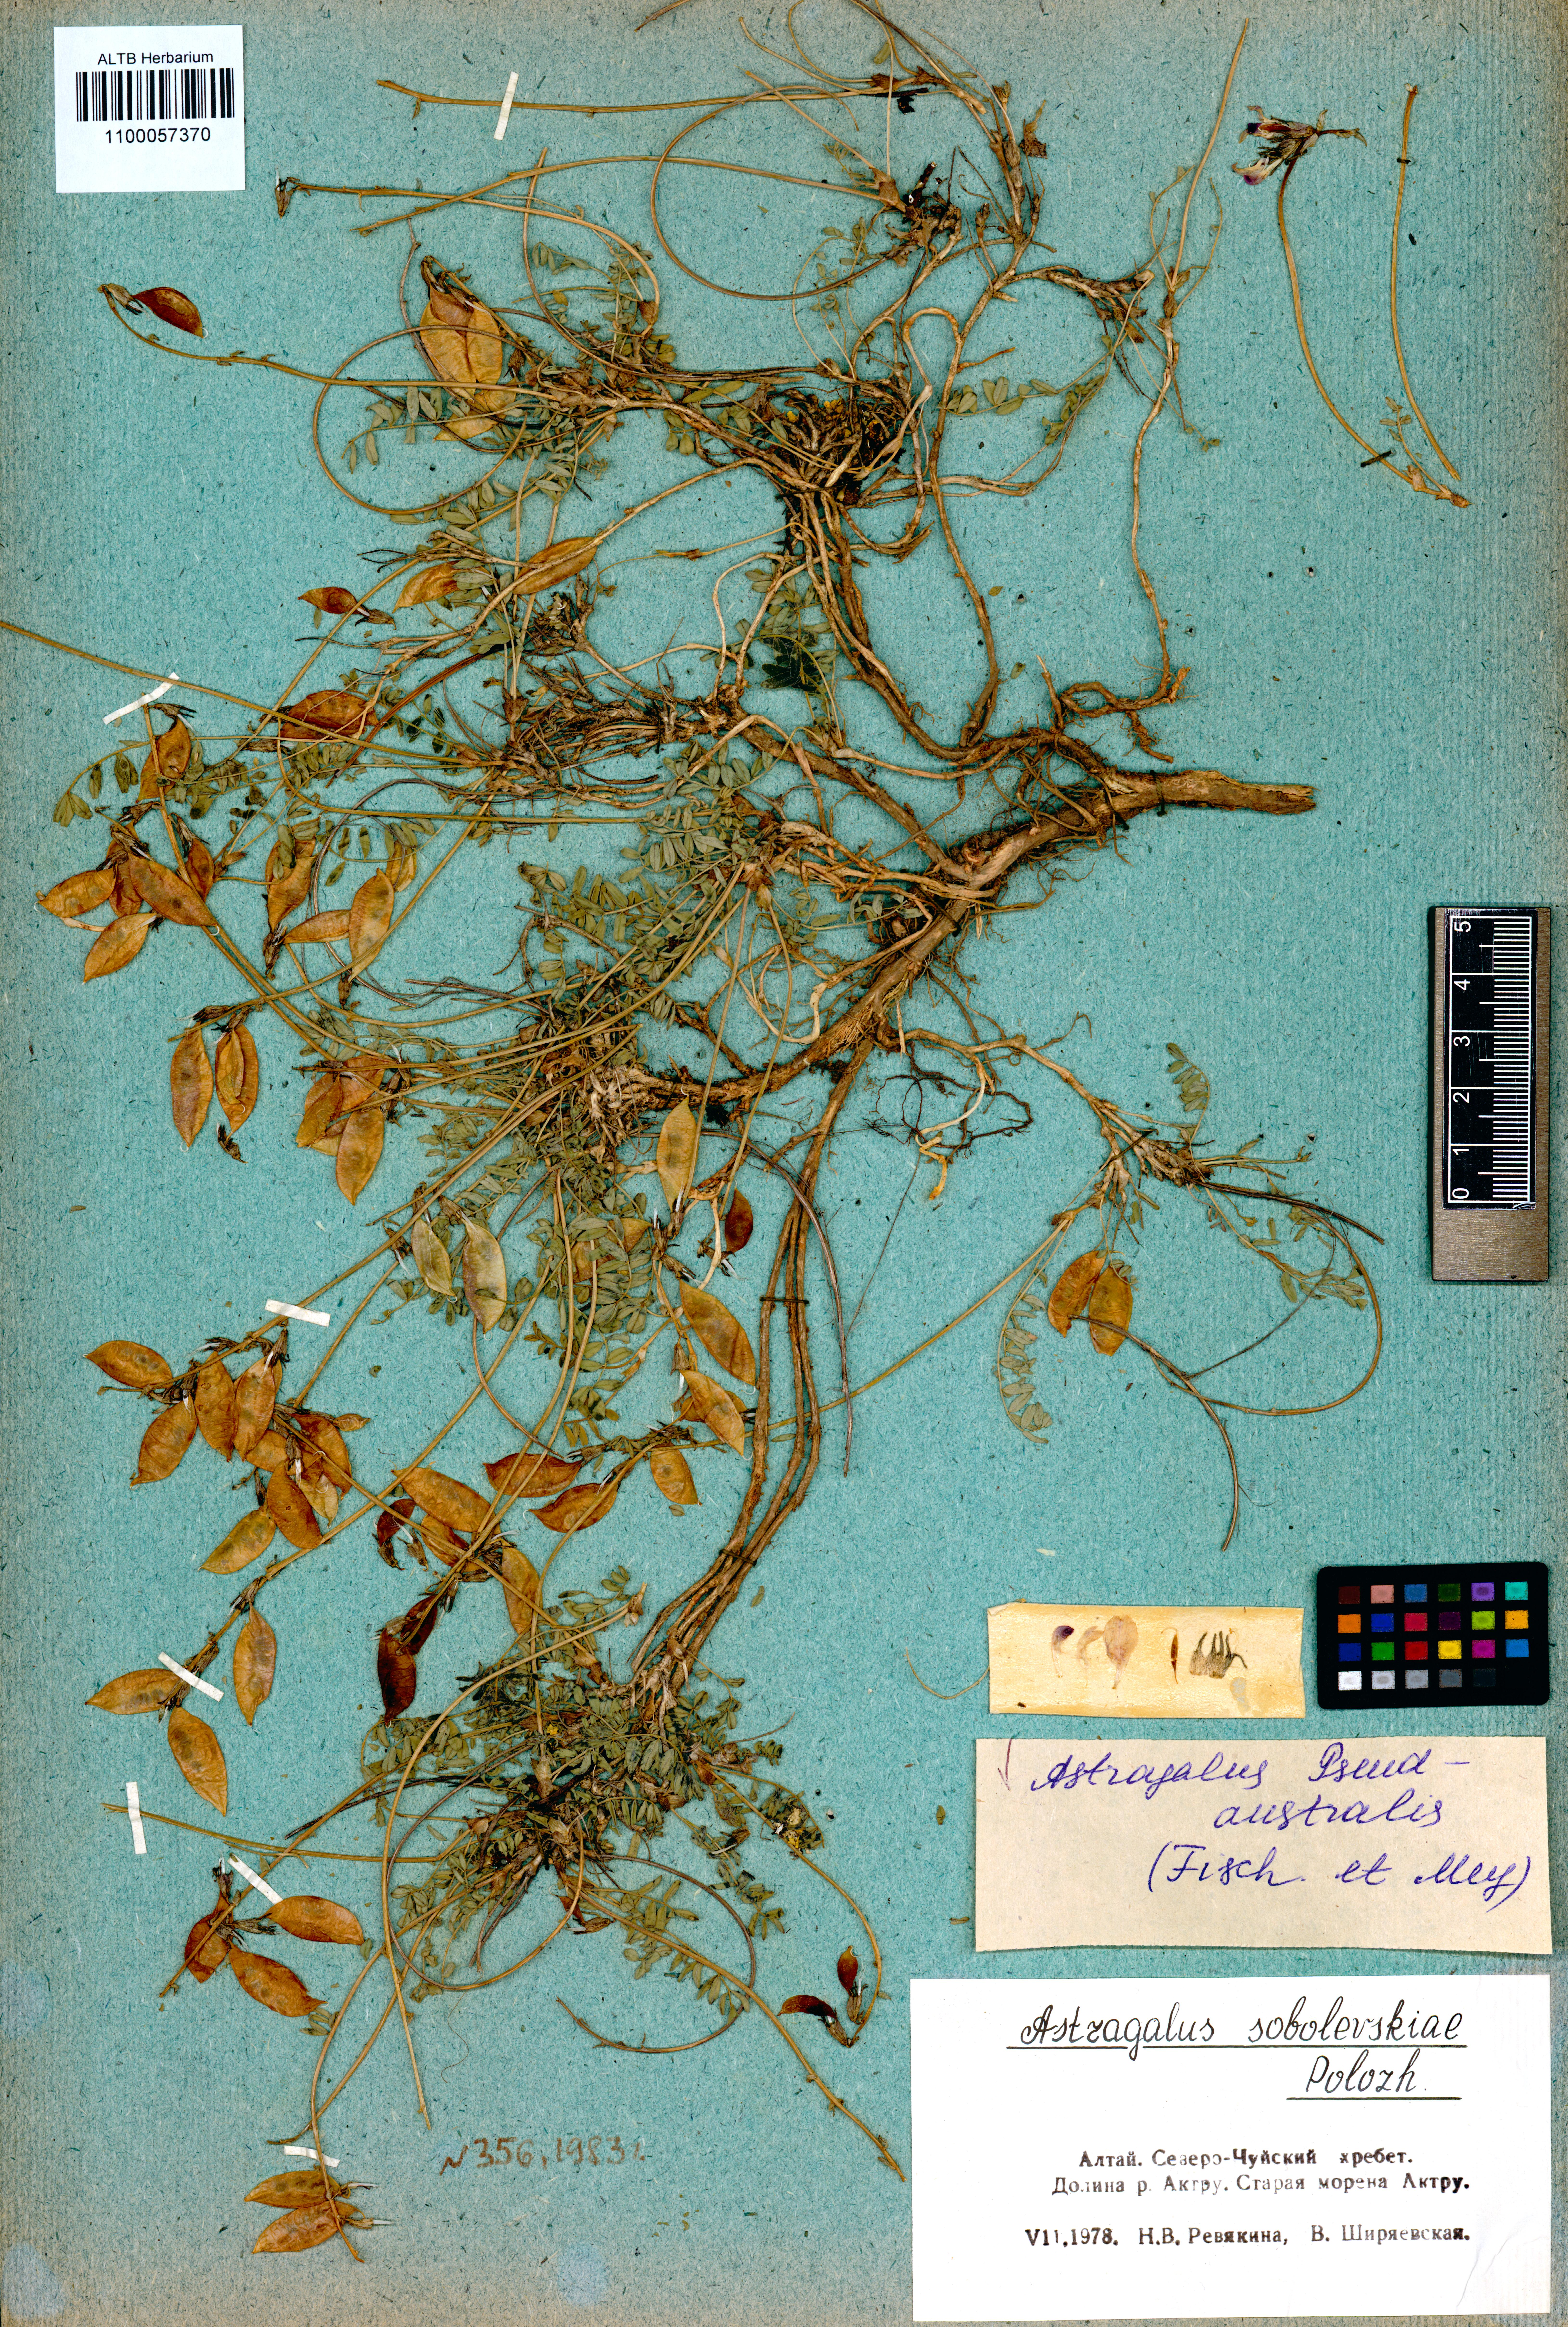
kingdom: Plantae
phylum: Tracheophyta
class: Magnoliopsida
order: Fabales
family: Fabaceae
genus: Astragalus
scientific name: Astragalus pseudaustralis
